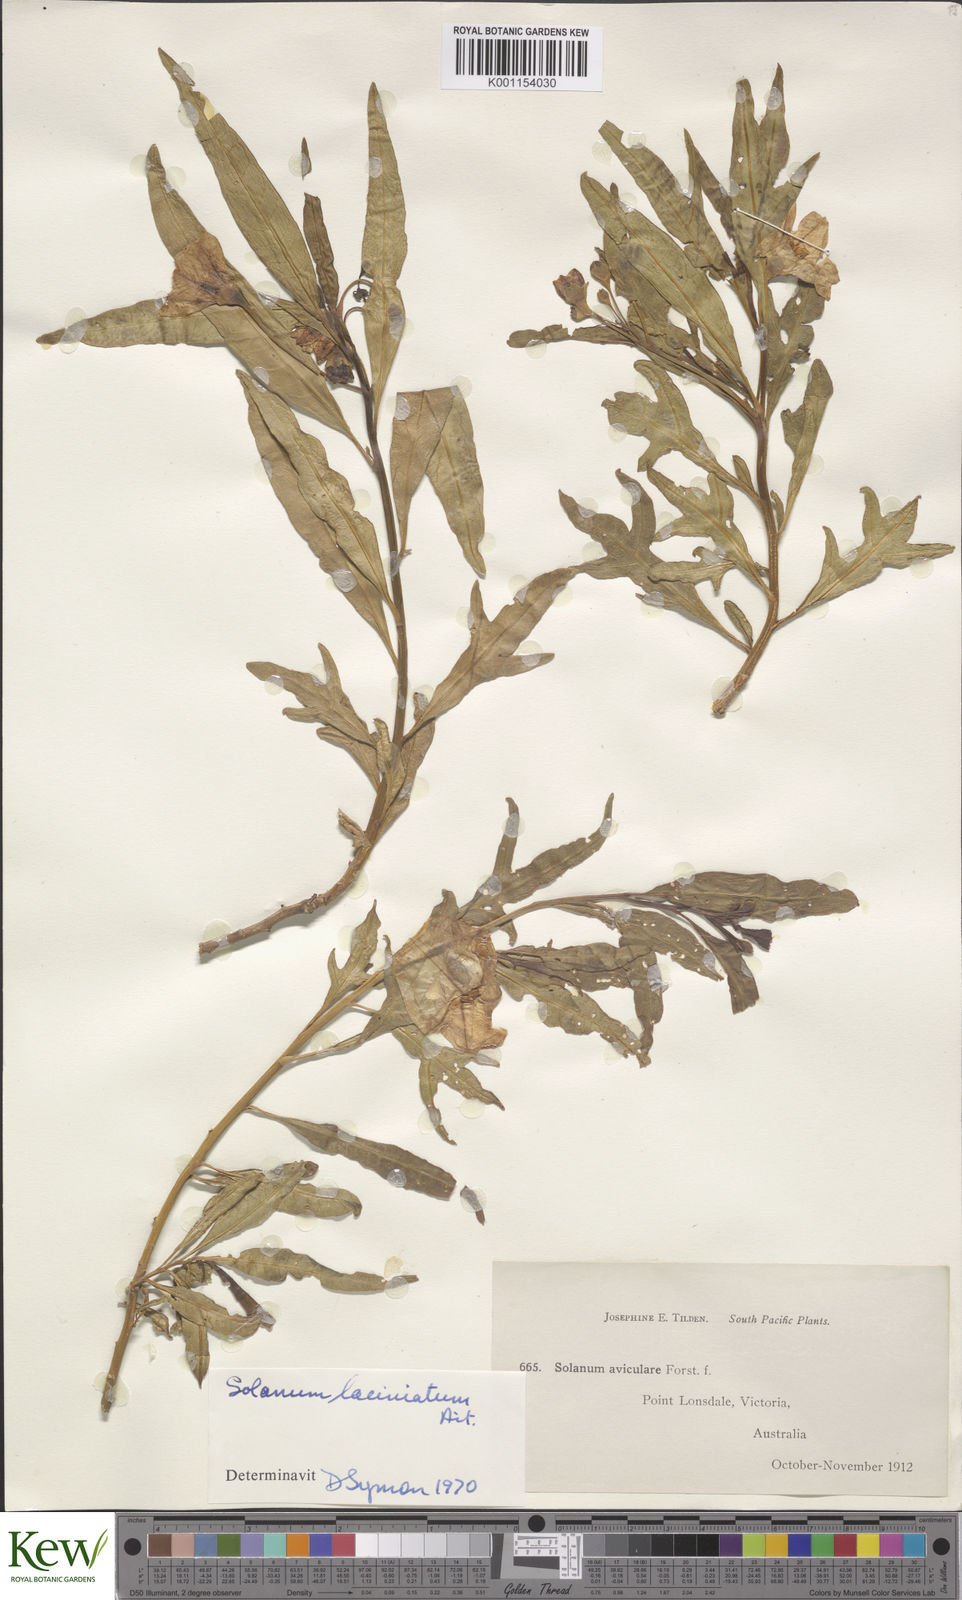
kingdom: Plantae
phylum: Tracheophyta
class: Magnoliopsida
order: Solanales
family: Solanaceae
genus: Solanum
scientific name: Solanum laciniatum
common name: Kangaroo-apple
